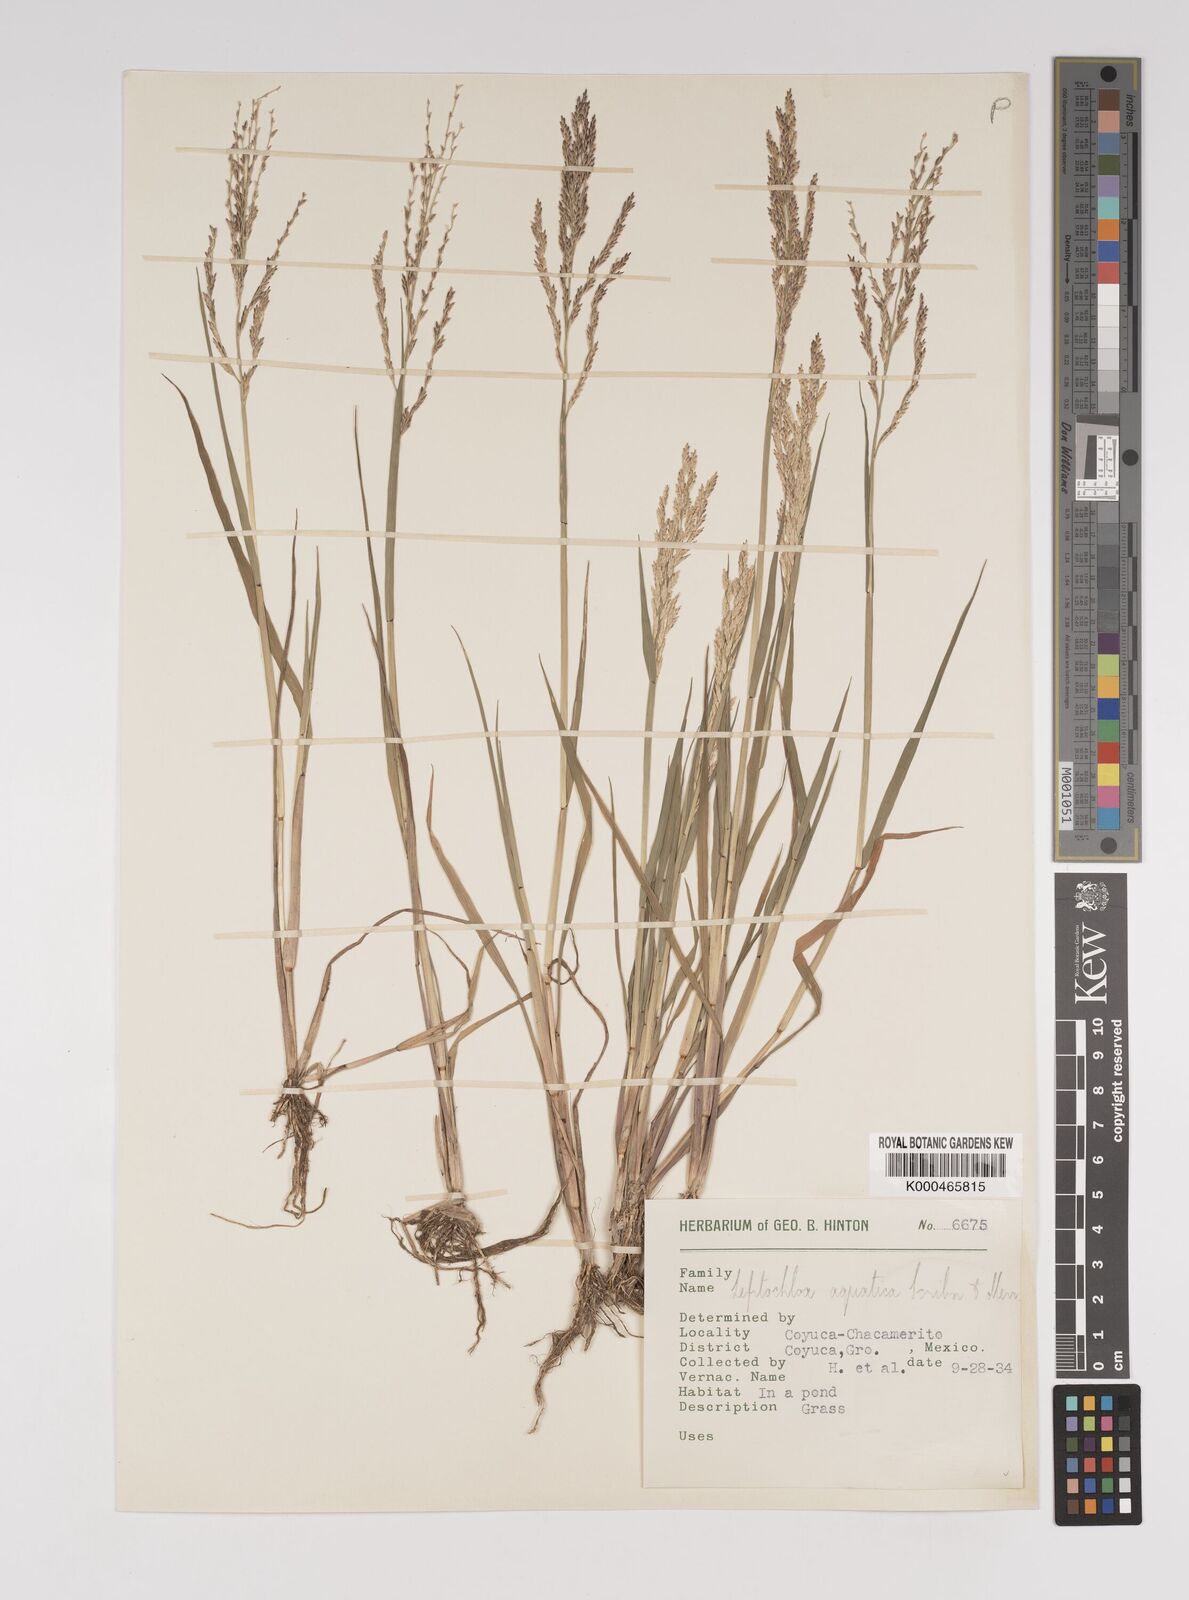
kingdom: Plantae
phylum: Tracheophyta
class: Liliopsida
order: Poales
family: Poaceae
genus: Eragrostis
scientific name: Eragrostis aquatica
